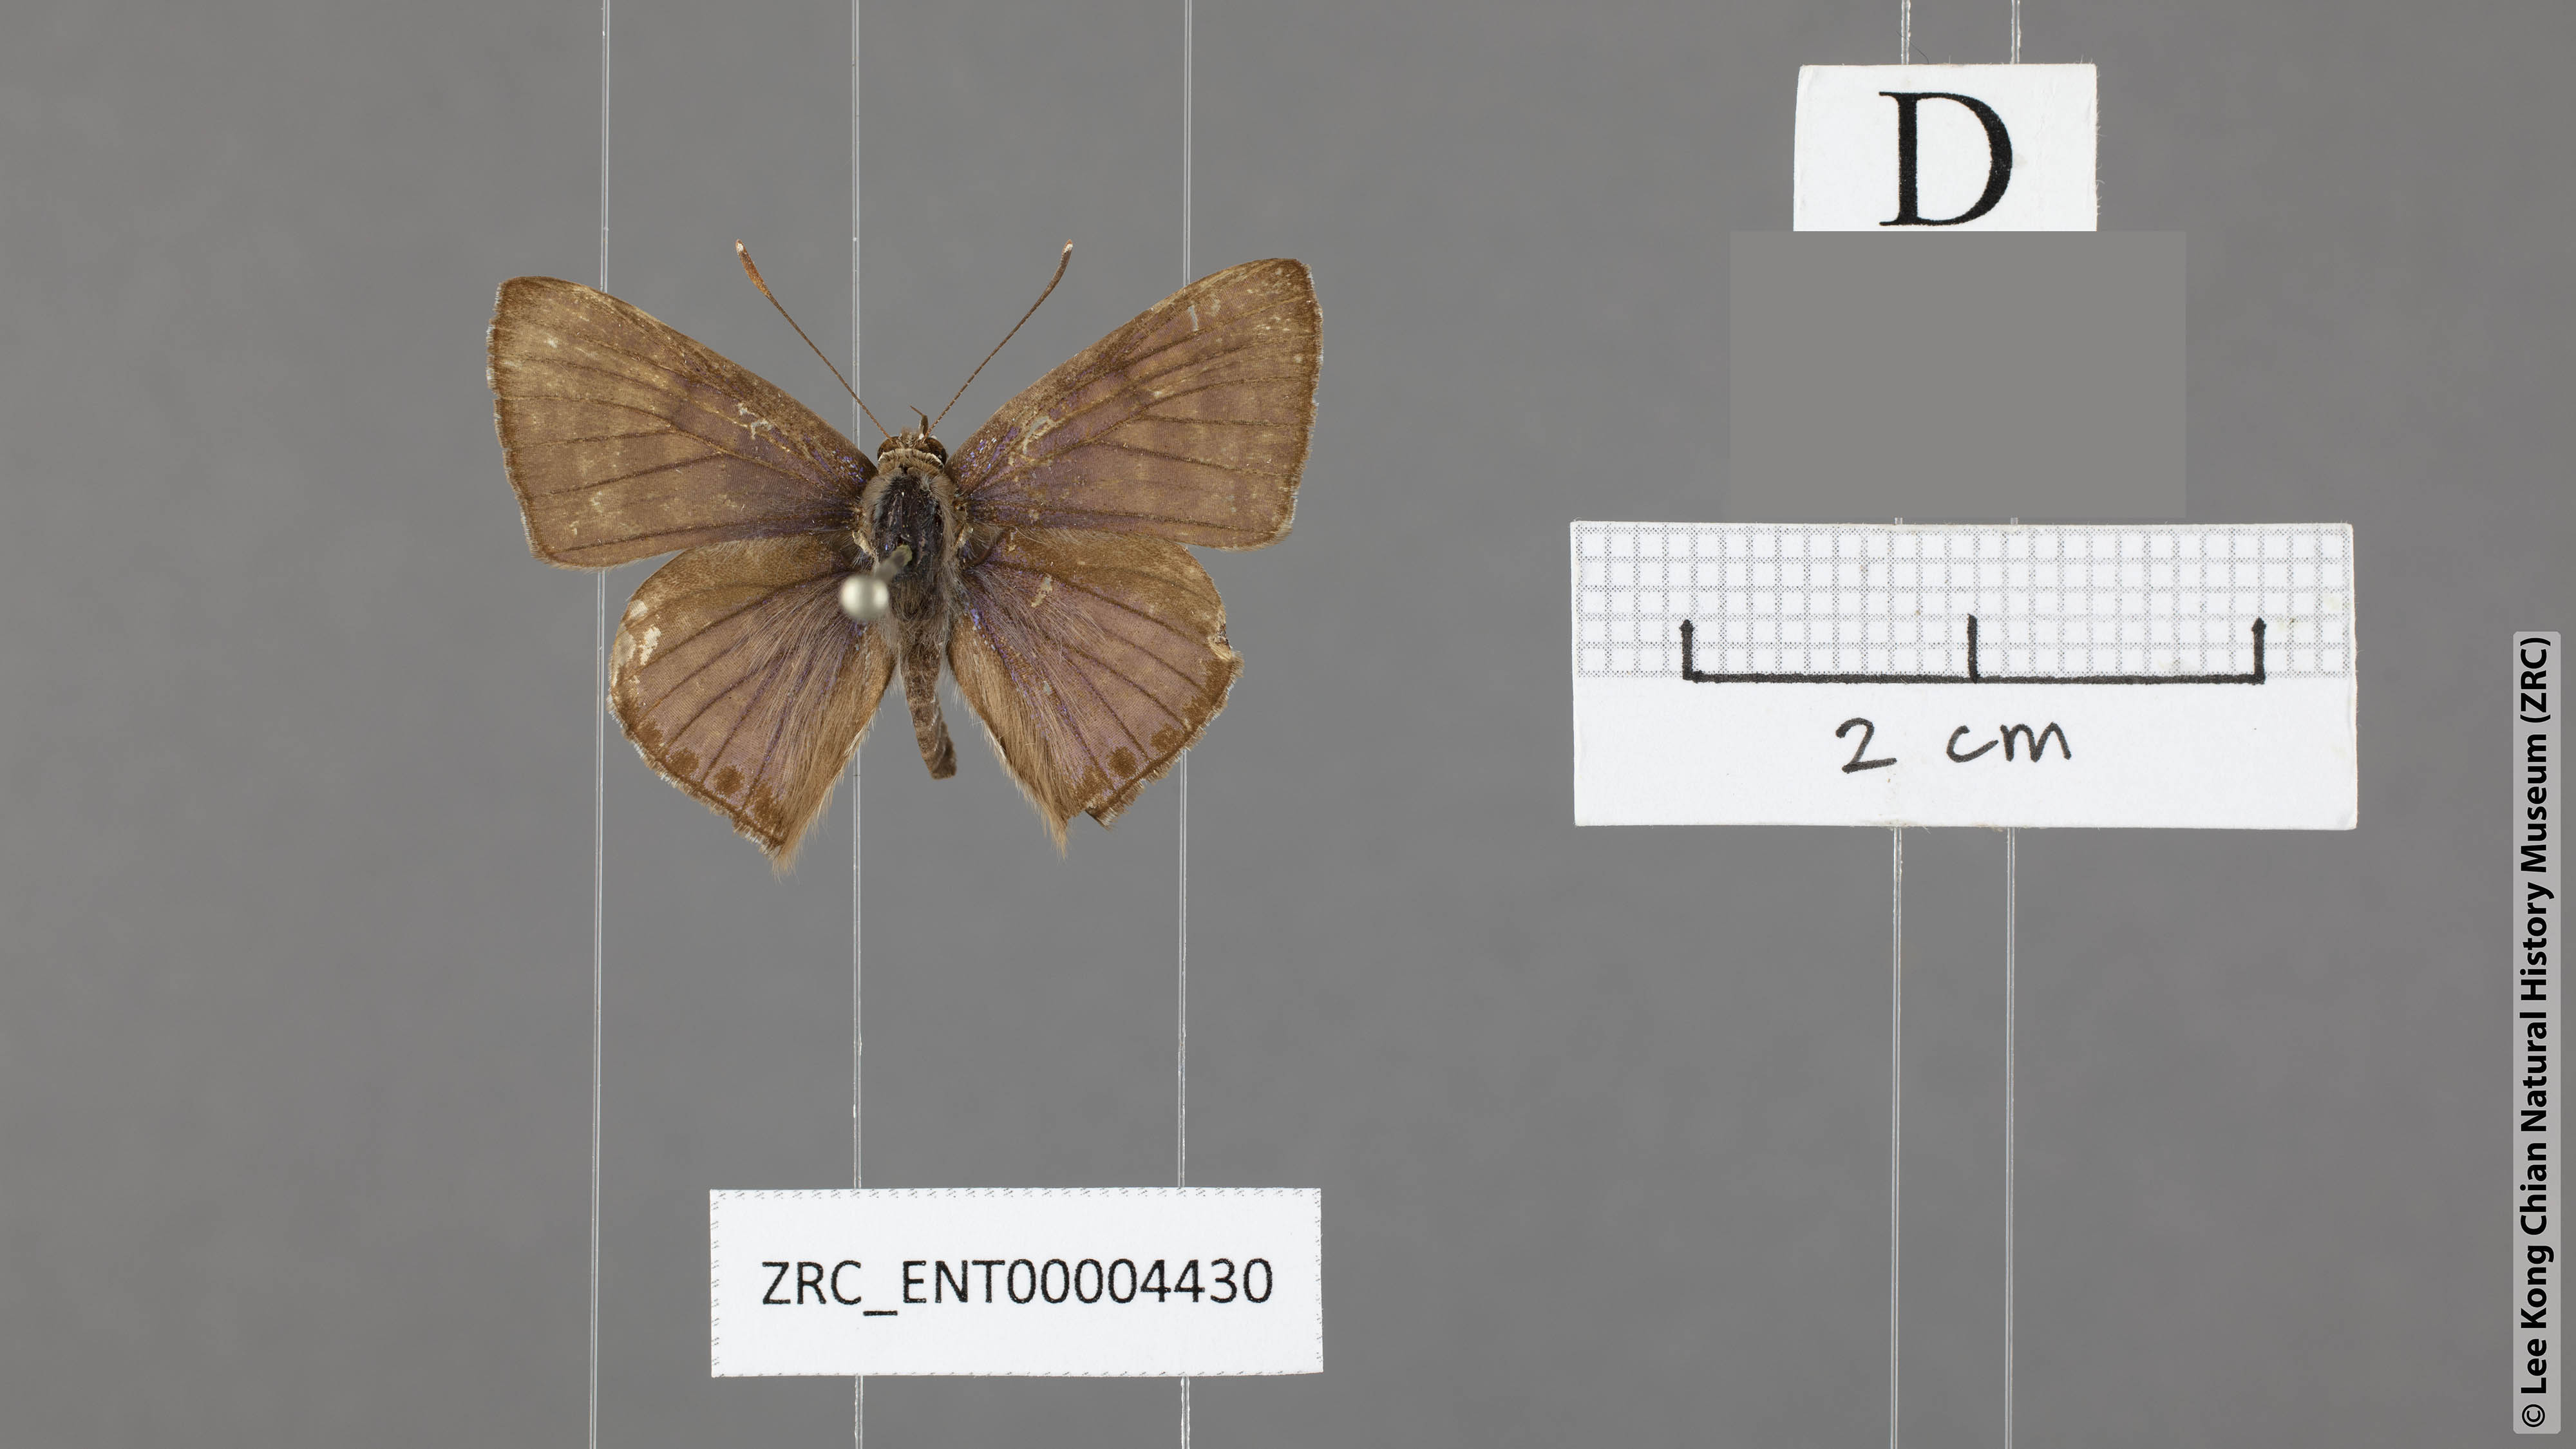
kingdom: Animalia
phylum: Arthropoda
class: Insecta
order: Lepidoptera
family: Lycaenidae
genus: Niphanda
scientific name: Niphanda tessellata
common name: Large pointed pierrot
